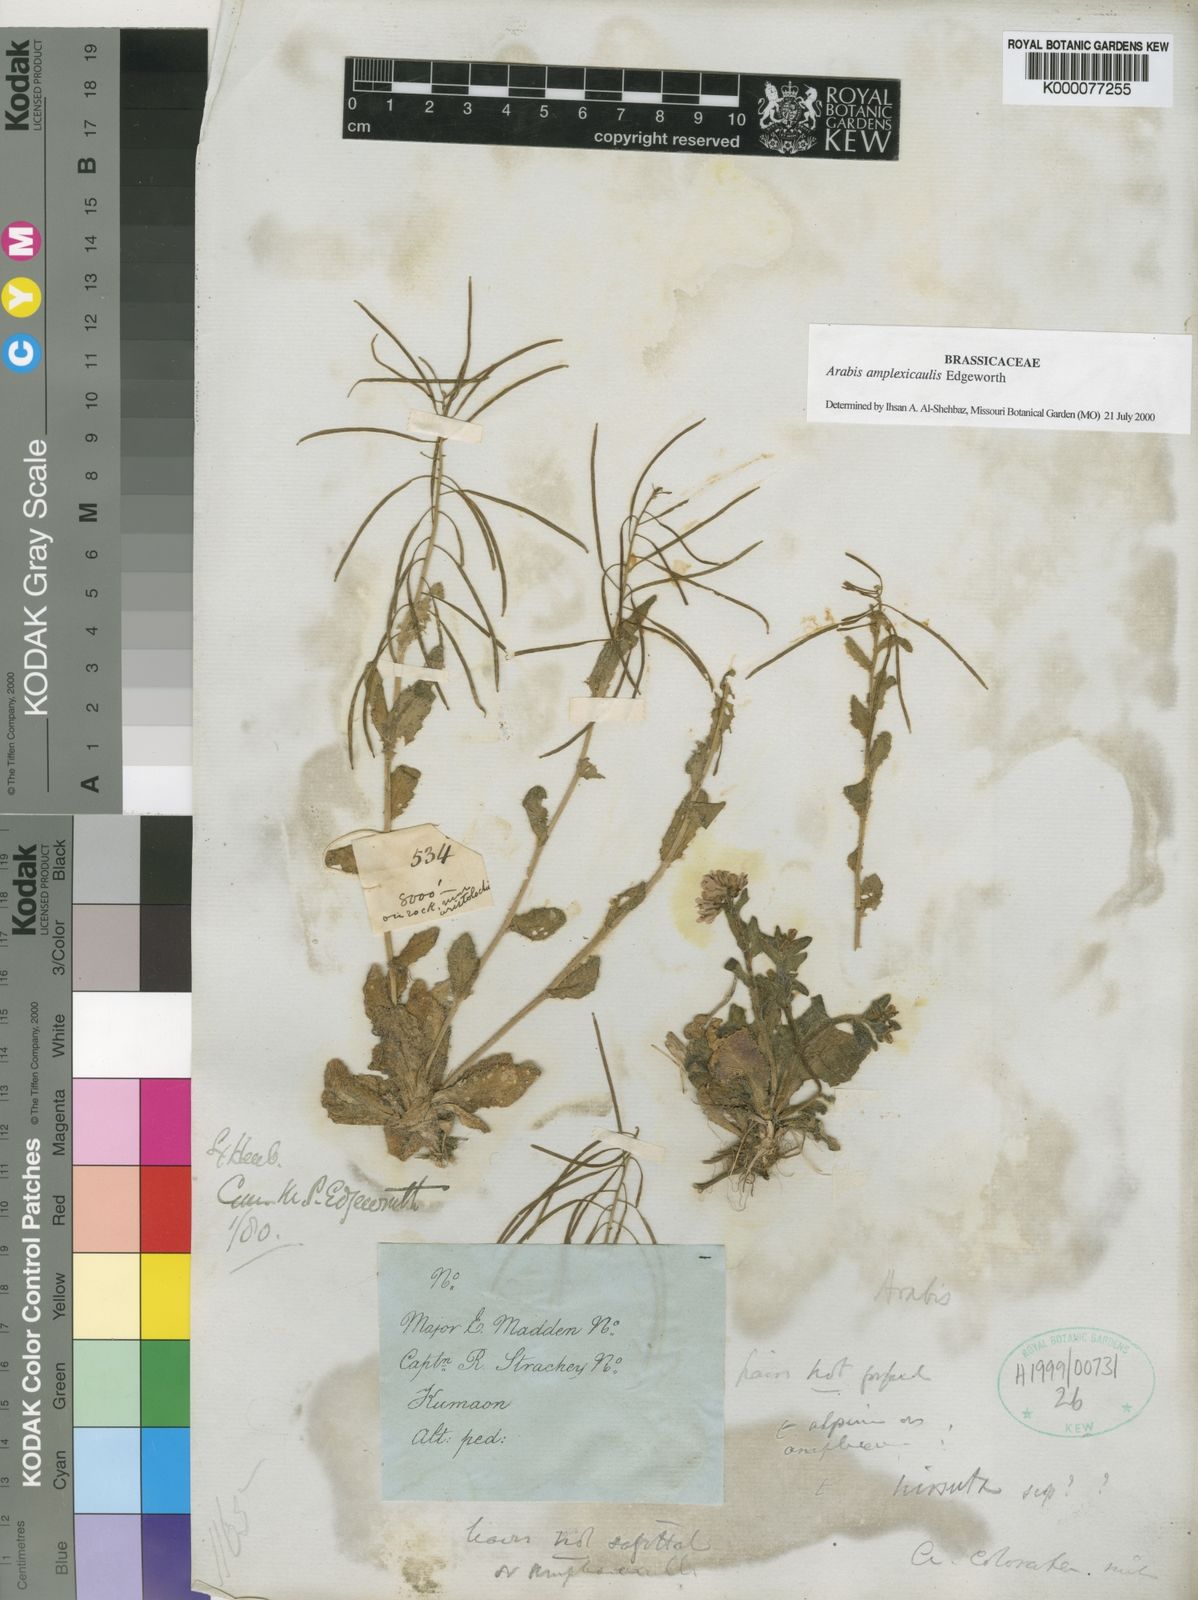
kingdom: Plantae
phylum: Tracheophyta
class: Magnoliopsida
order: Brassicales
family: Brassicaceae
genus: Arabis
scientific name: Arabis amplexicaulis
